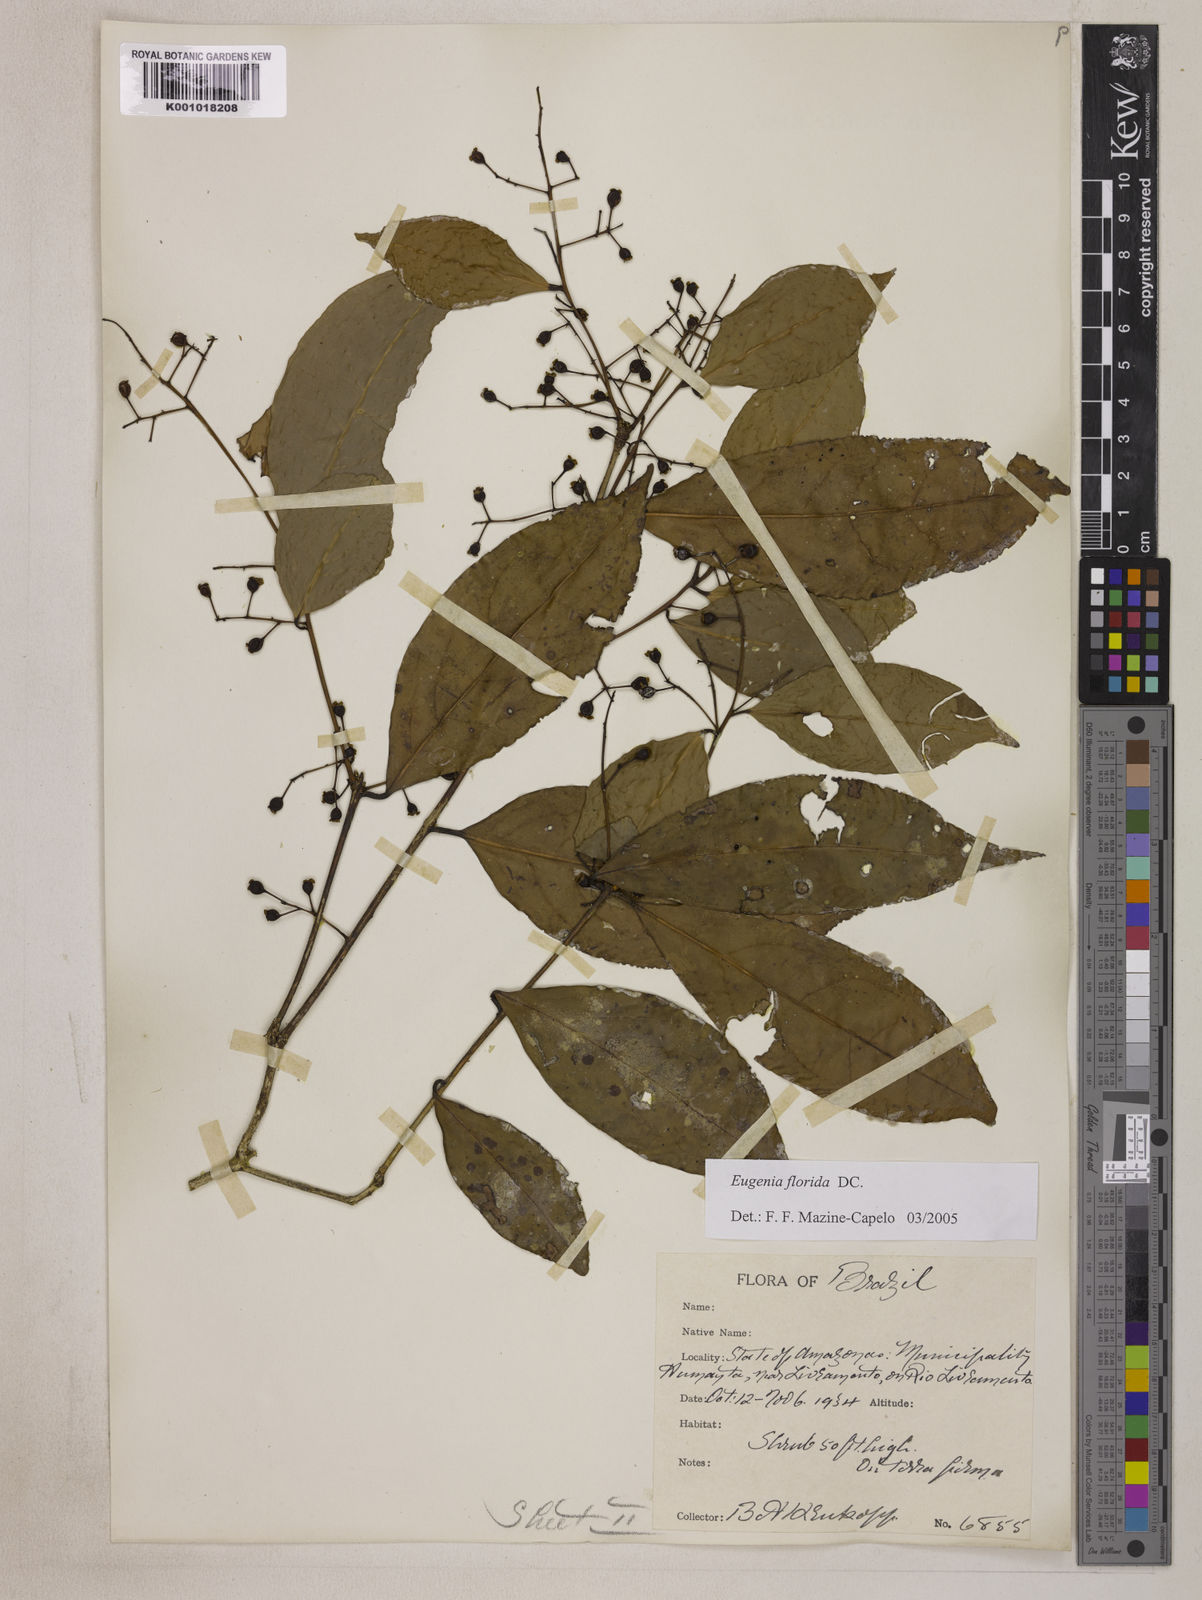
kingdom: Plantae
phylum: Tracheophyta
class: Magnoliopsida
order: Myrtales
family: Myrtaceae
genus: Eugenia
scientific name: Eugenia florida
